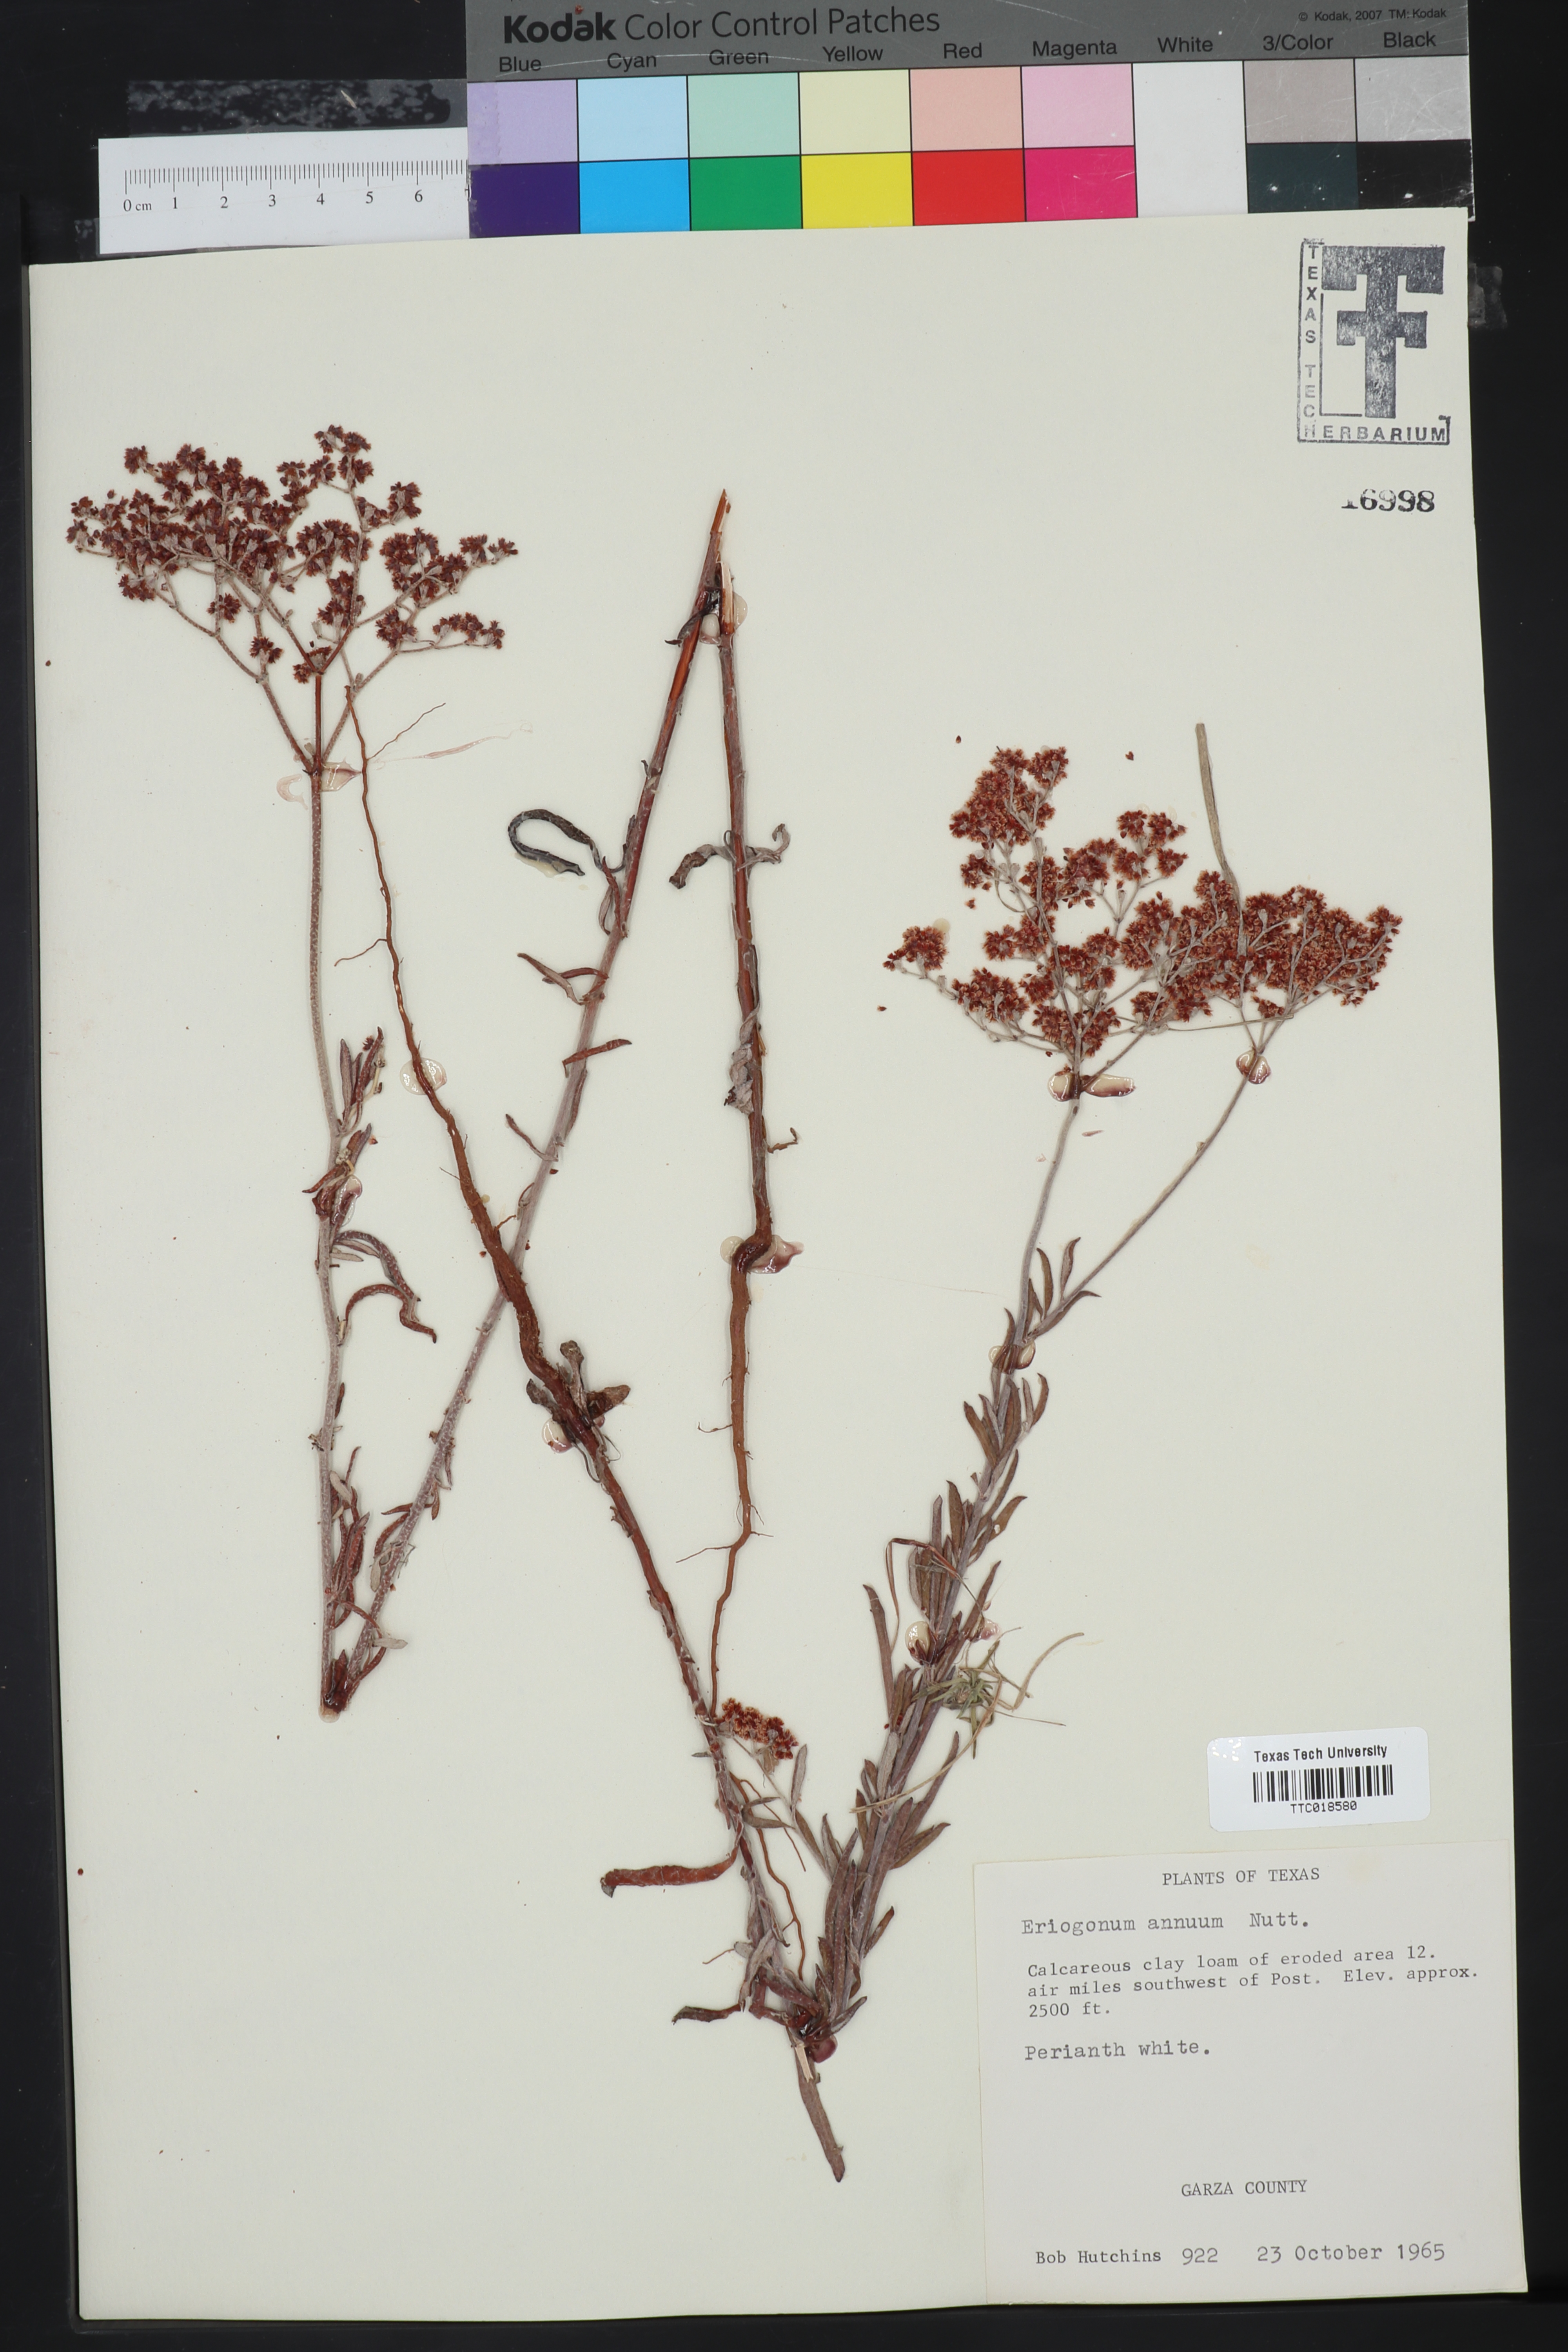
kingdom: Plantae
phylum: Tracheophyta
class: Magnoliopsida
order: Caryophyllales
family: Polygonaceae
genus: Eriogonum
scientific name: Eriogonum annuum
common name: Annual wild buckwheat
